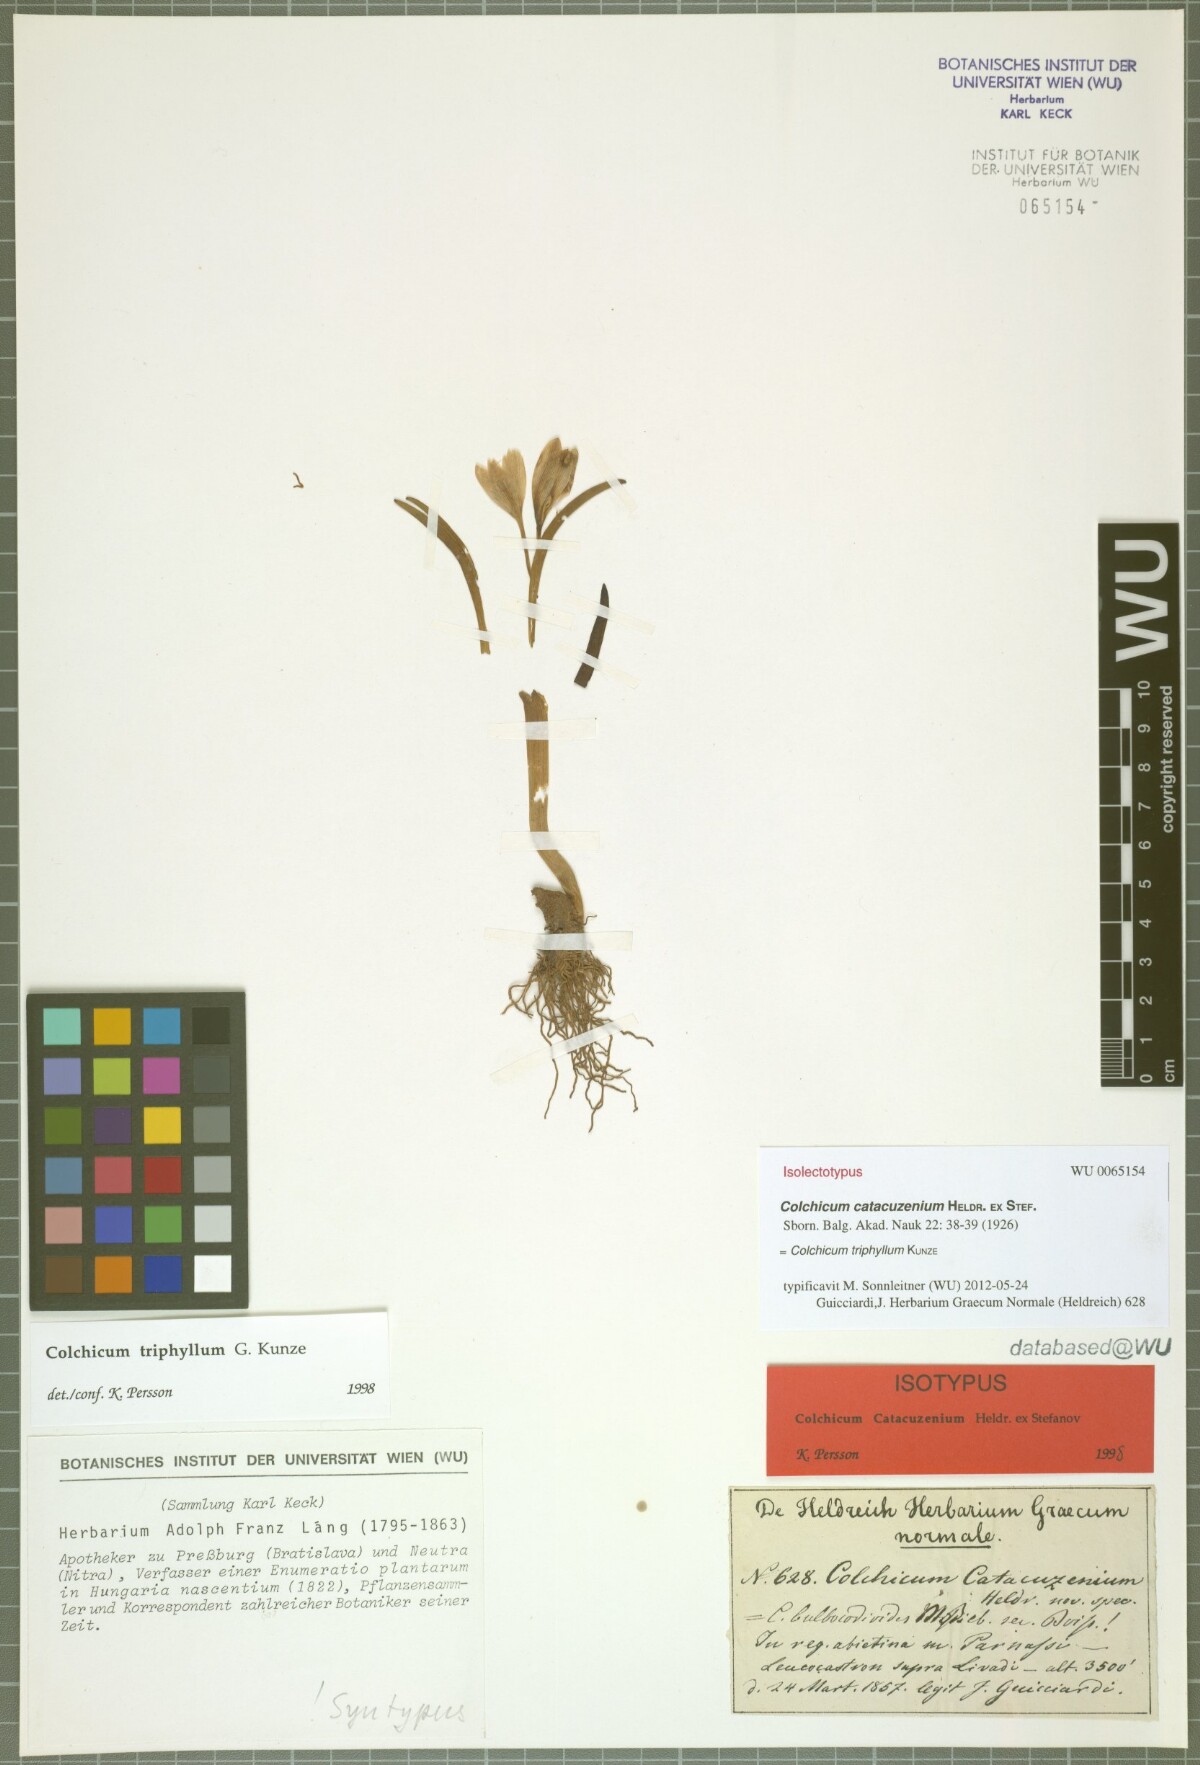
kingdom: Plantae
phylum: Tracheophyta
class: Liliopsida
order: Liliales
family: Colchicaceae
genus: Colchicum
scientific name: Colchicum triphyllum
